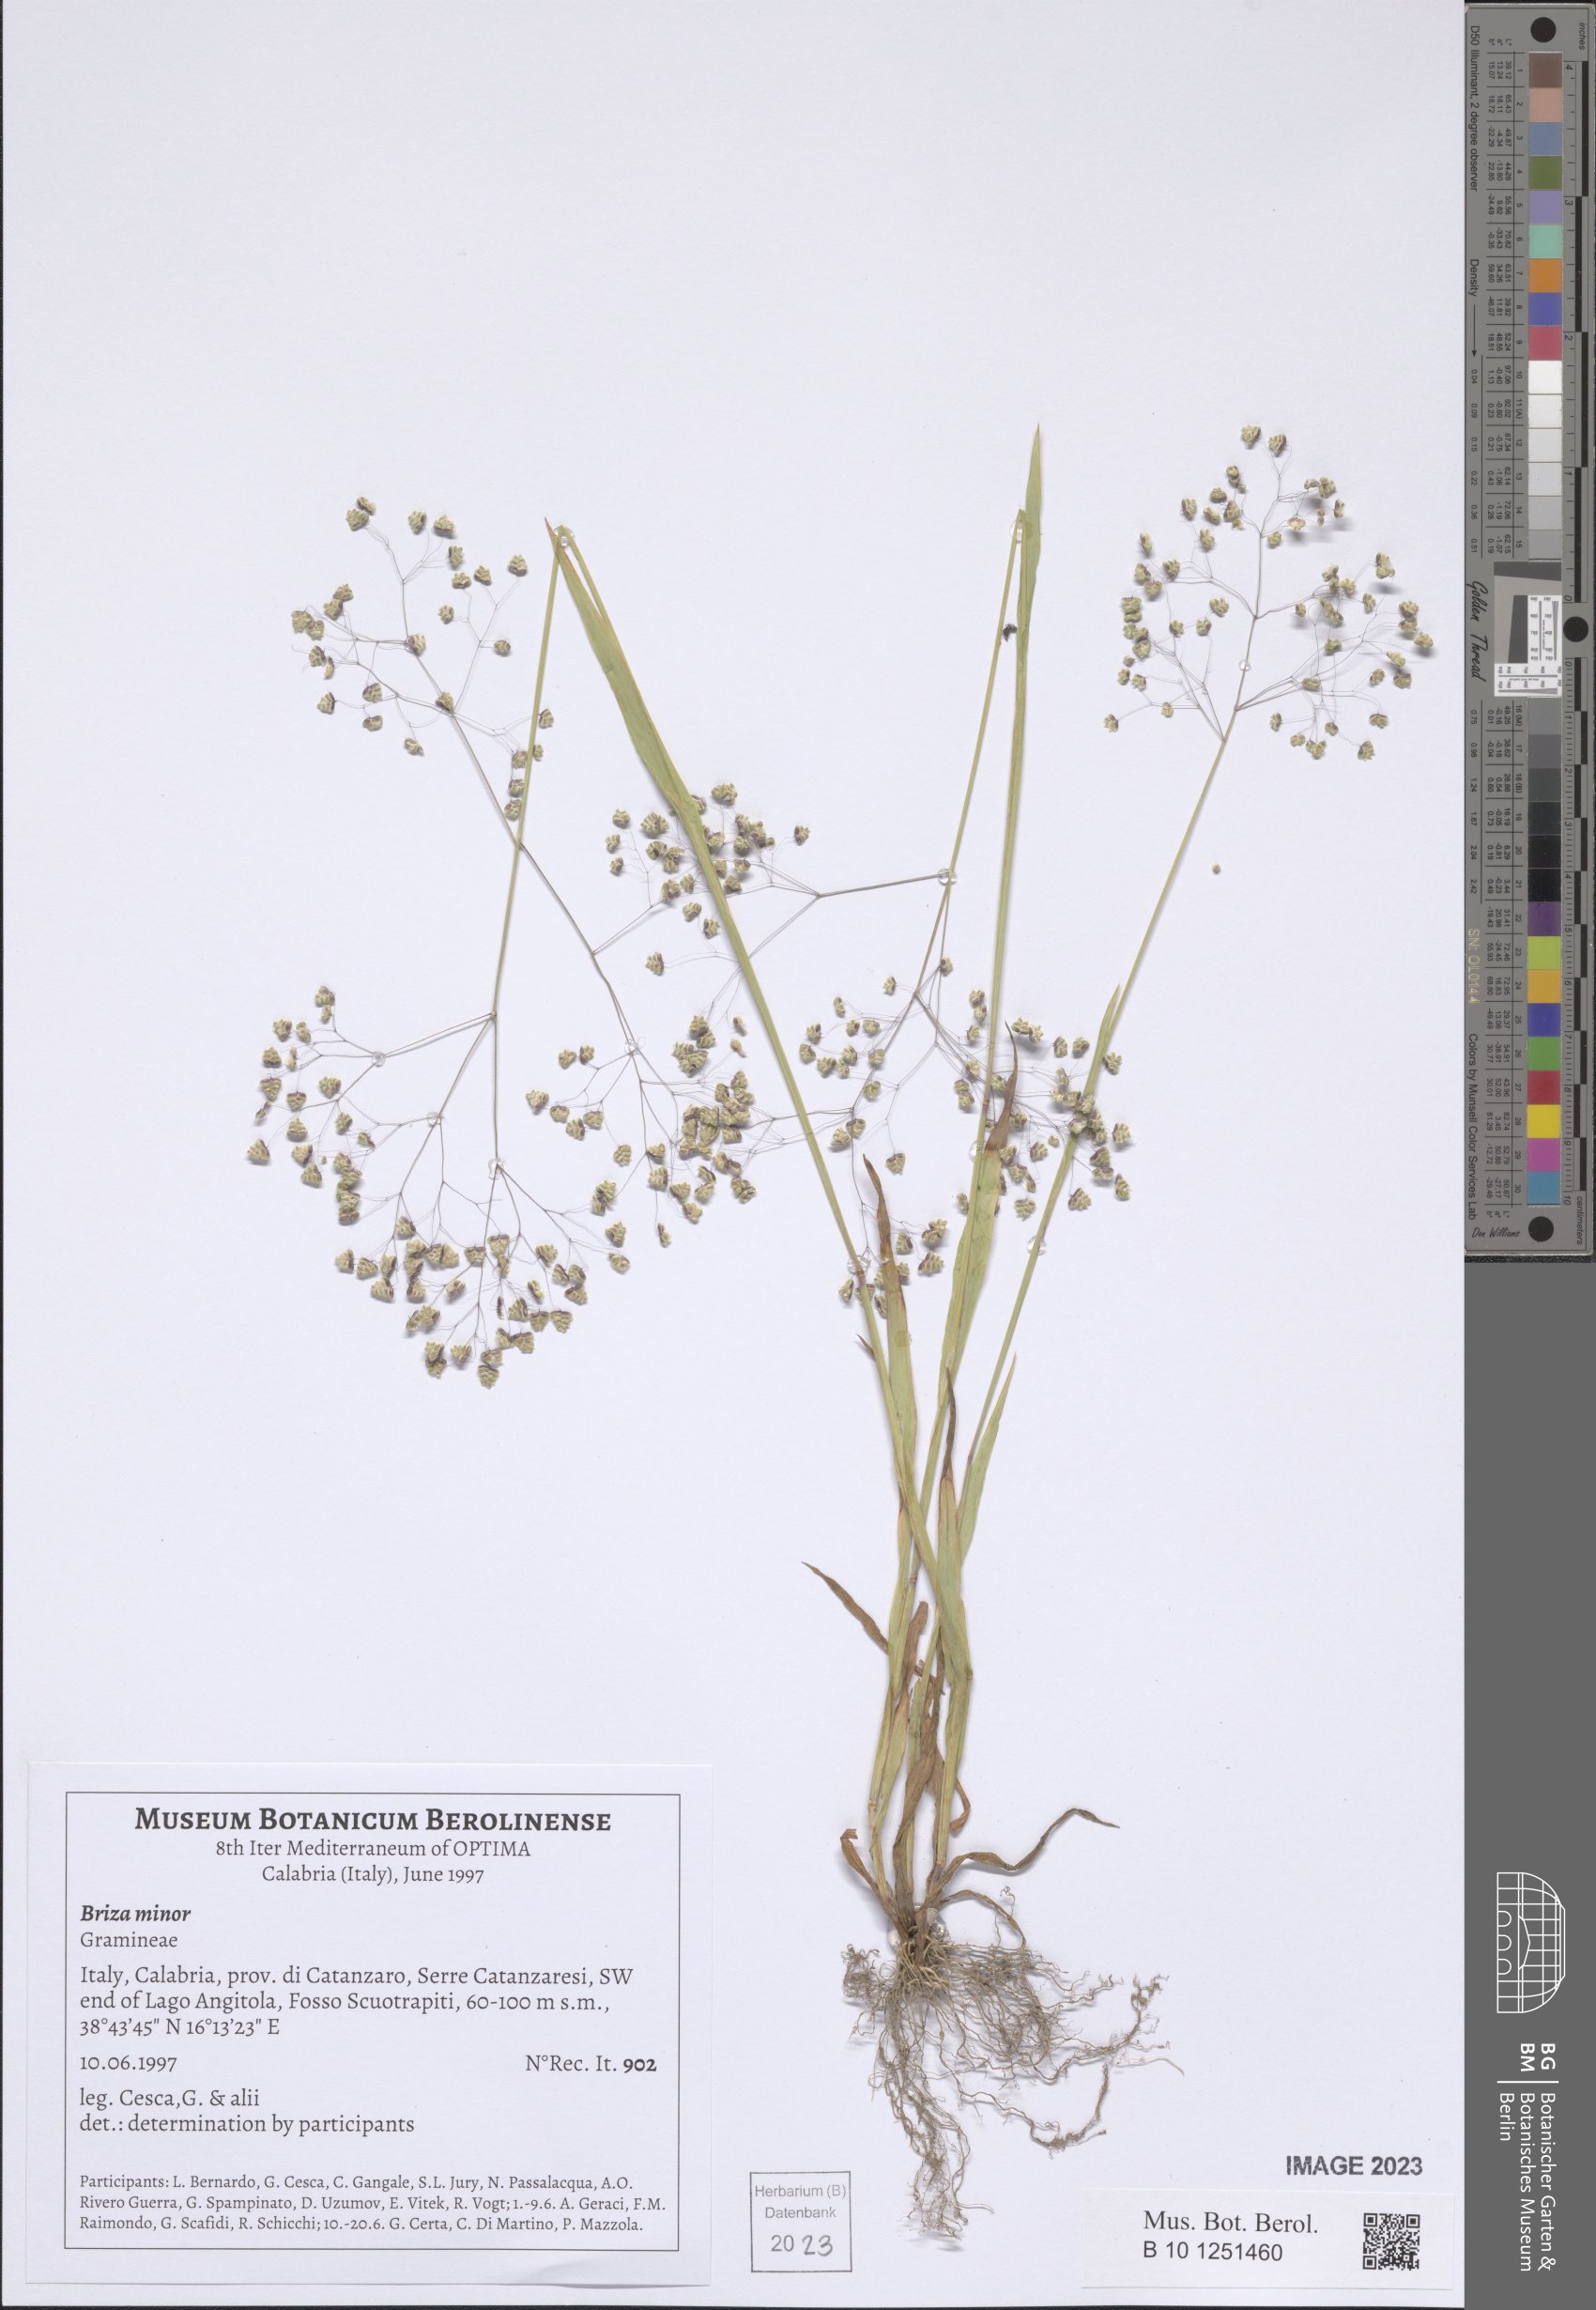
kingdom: Plantae
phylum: Tracheophyta
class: Liliopsida
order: Poales
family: Poaceae
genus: Briza
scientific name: Briza minor
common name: Lesser quaking-grass
